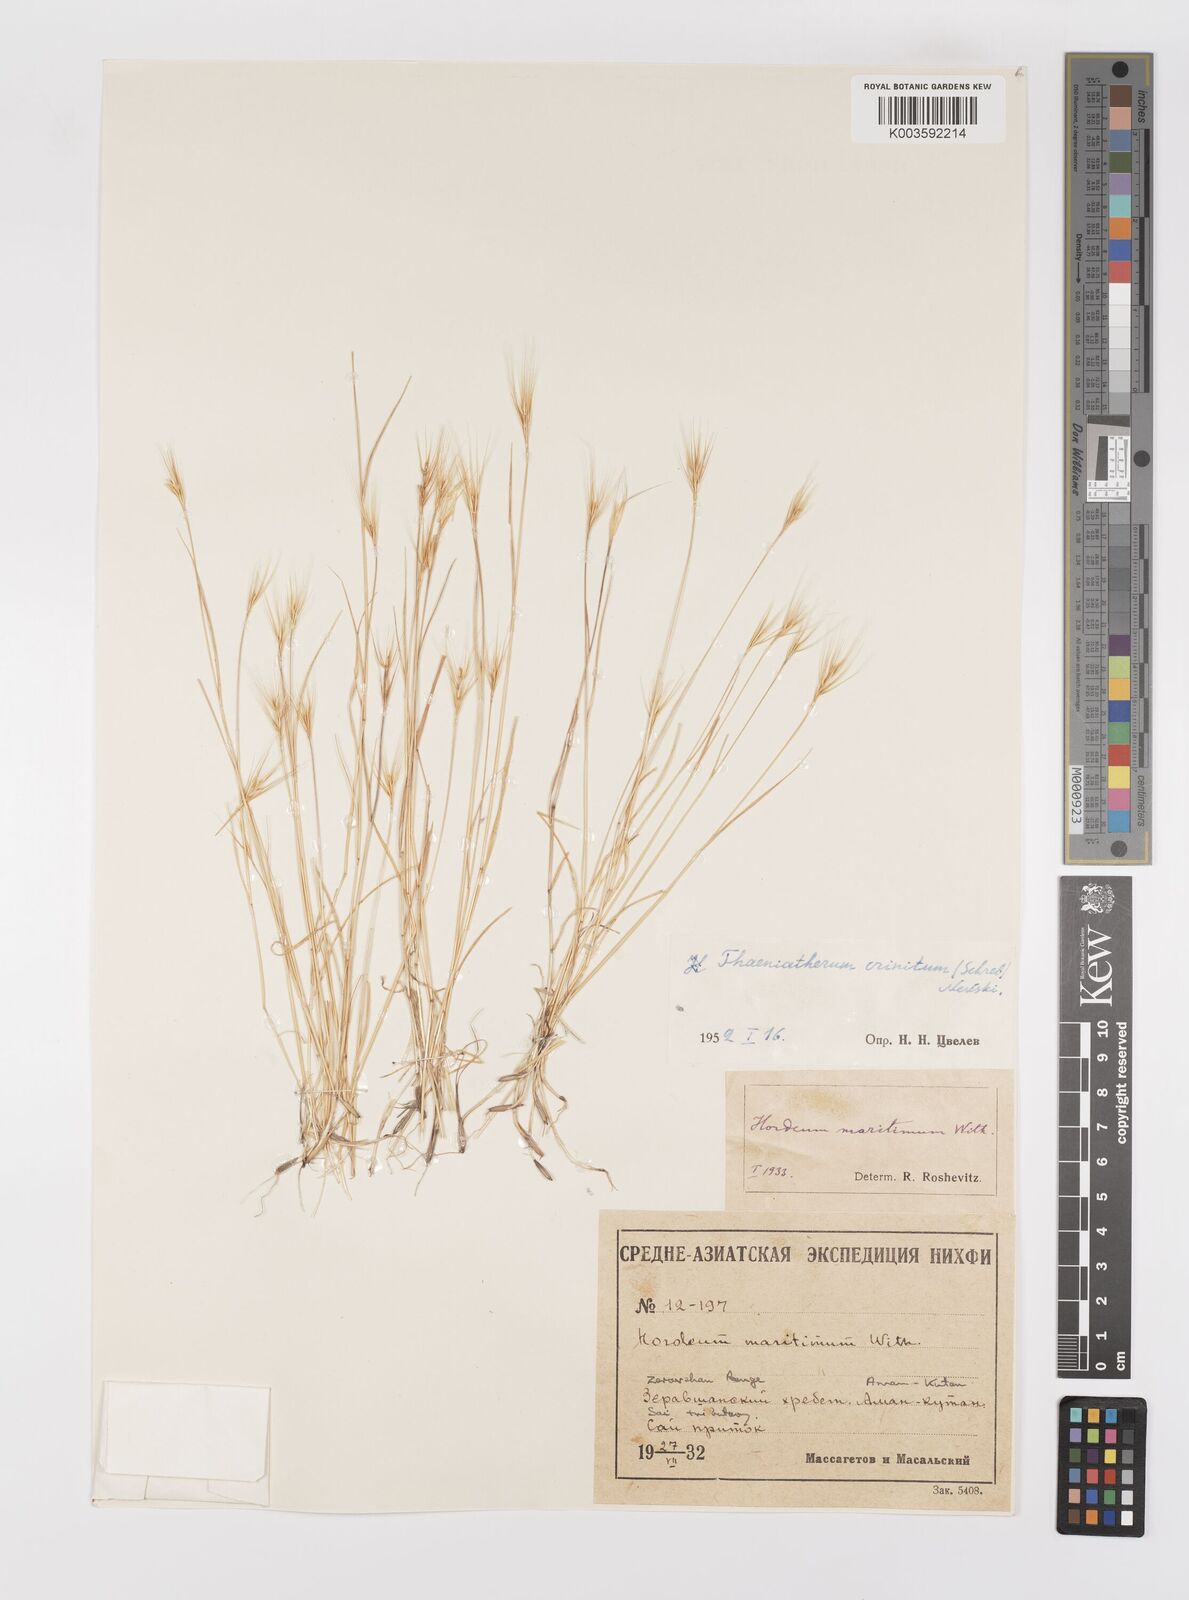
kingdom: Plantae
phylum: Tracheophyta
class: Liliopsida
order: Poales
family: Poaceae
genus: Taeniatherum
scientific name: Taeniatherum caput-medusae
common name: Medusahead
